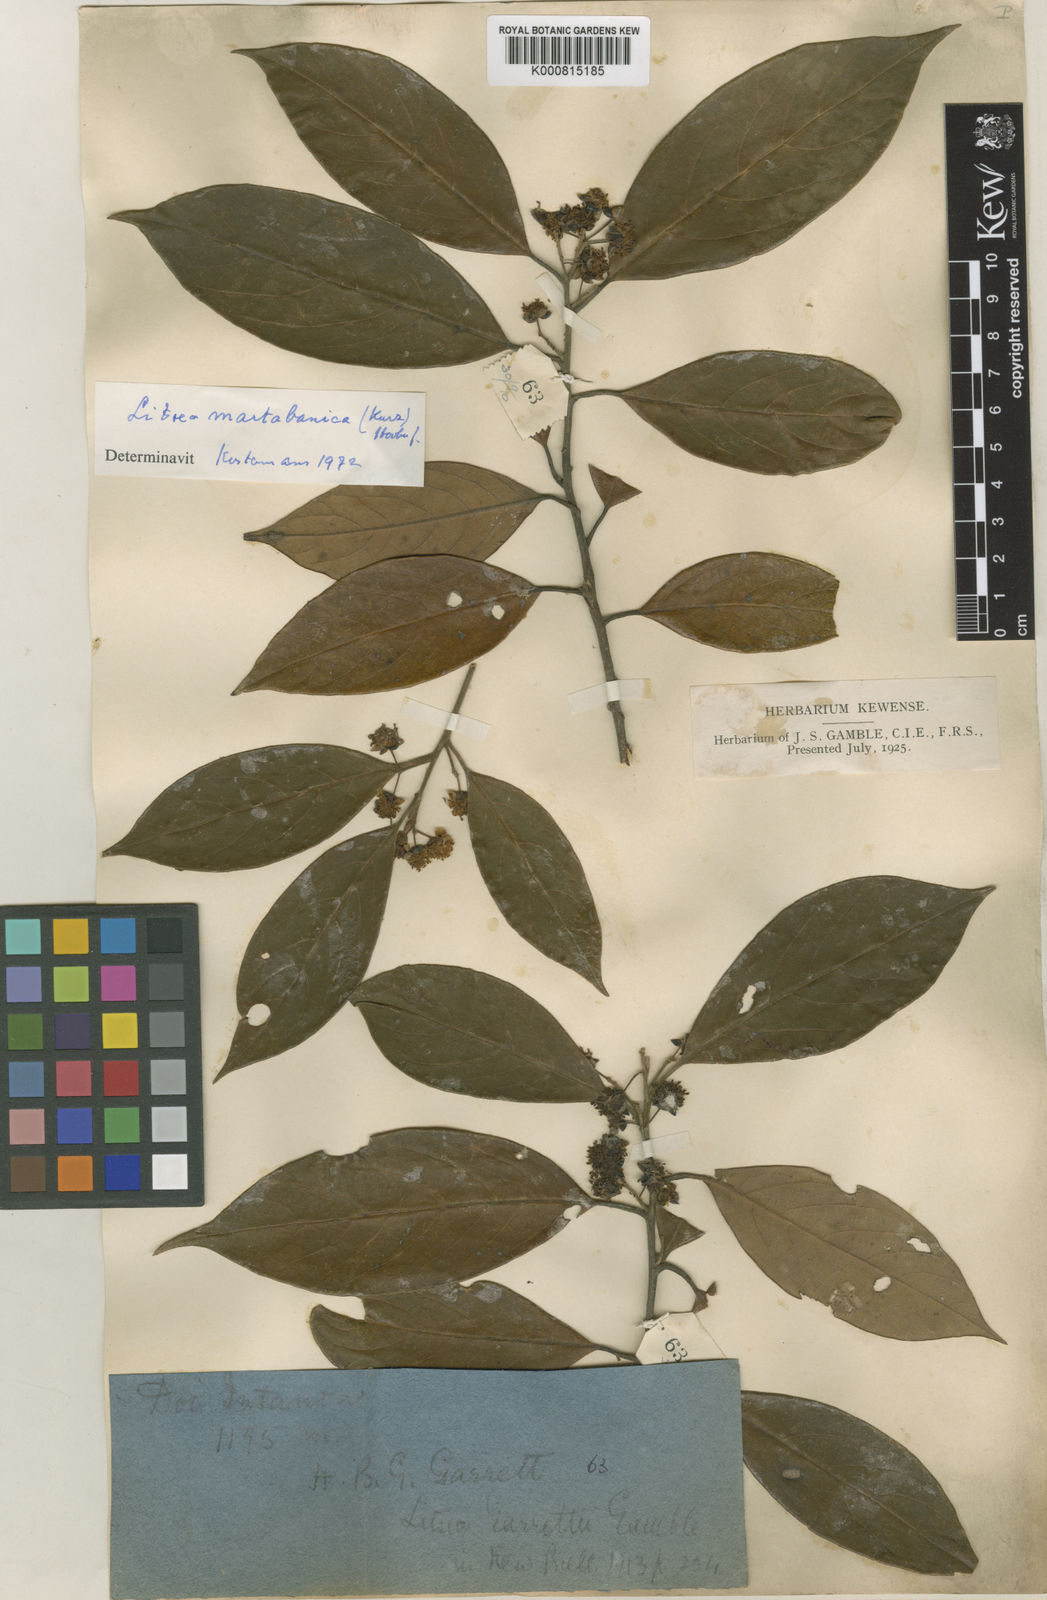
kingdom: Plantae
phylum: Tracheophyta
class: Magnoliopsida
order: Laurales
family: Lauraceae
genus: Litsea
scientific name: Litsea martabanica
